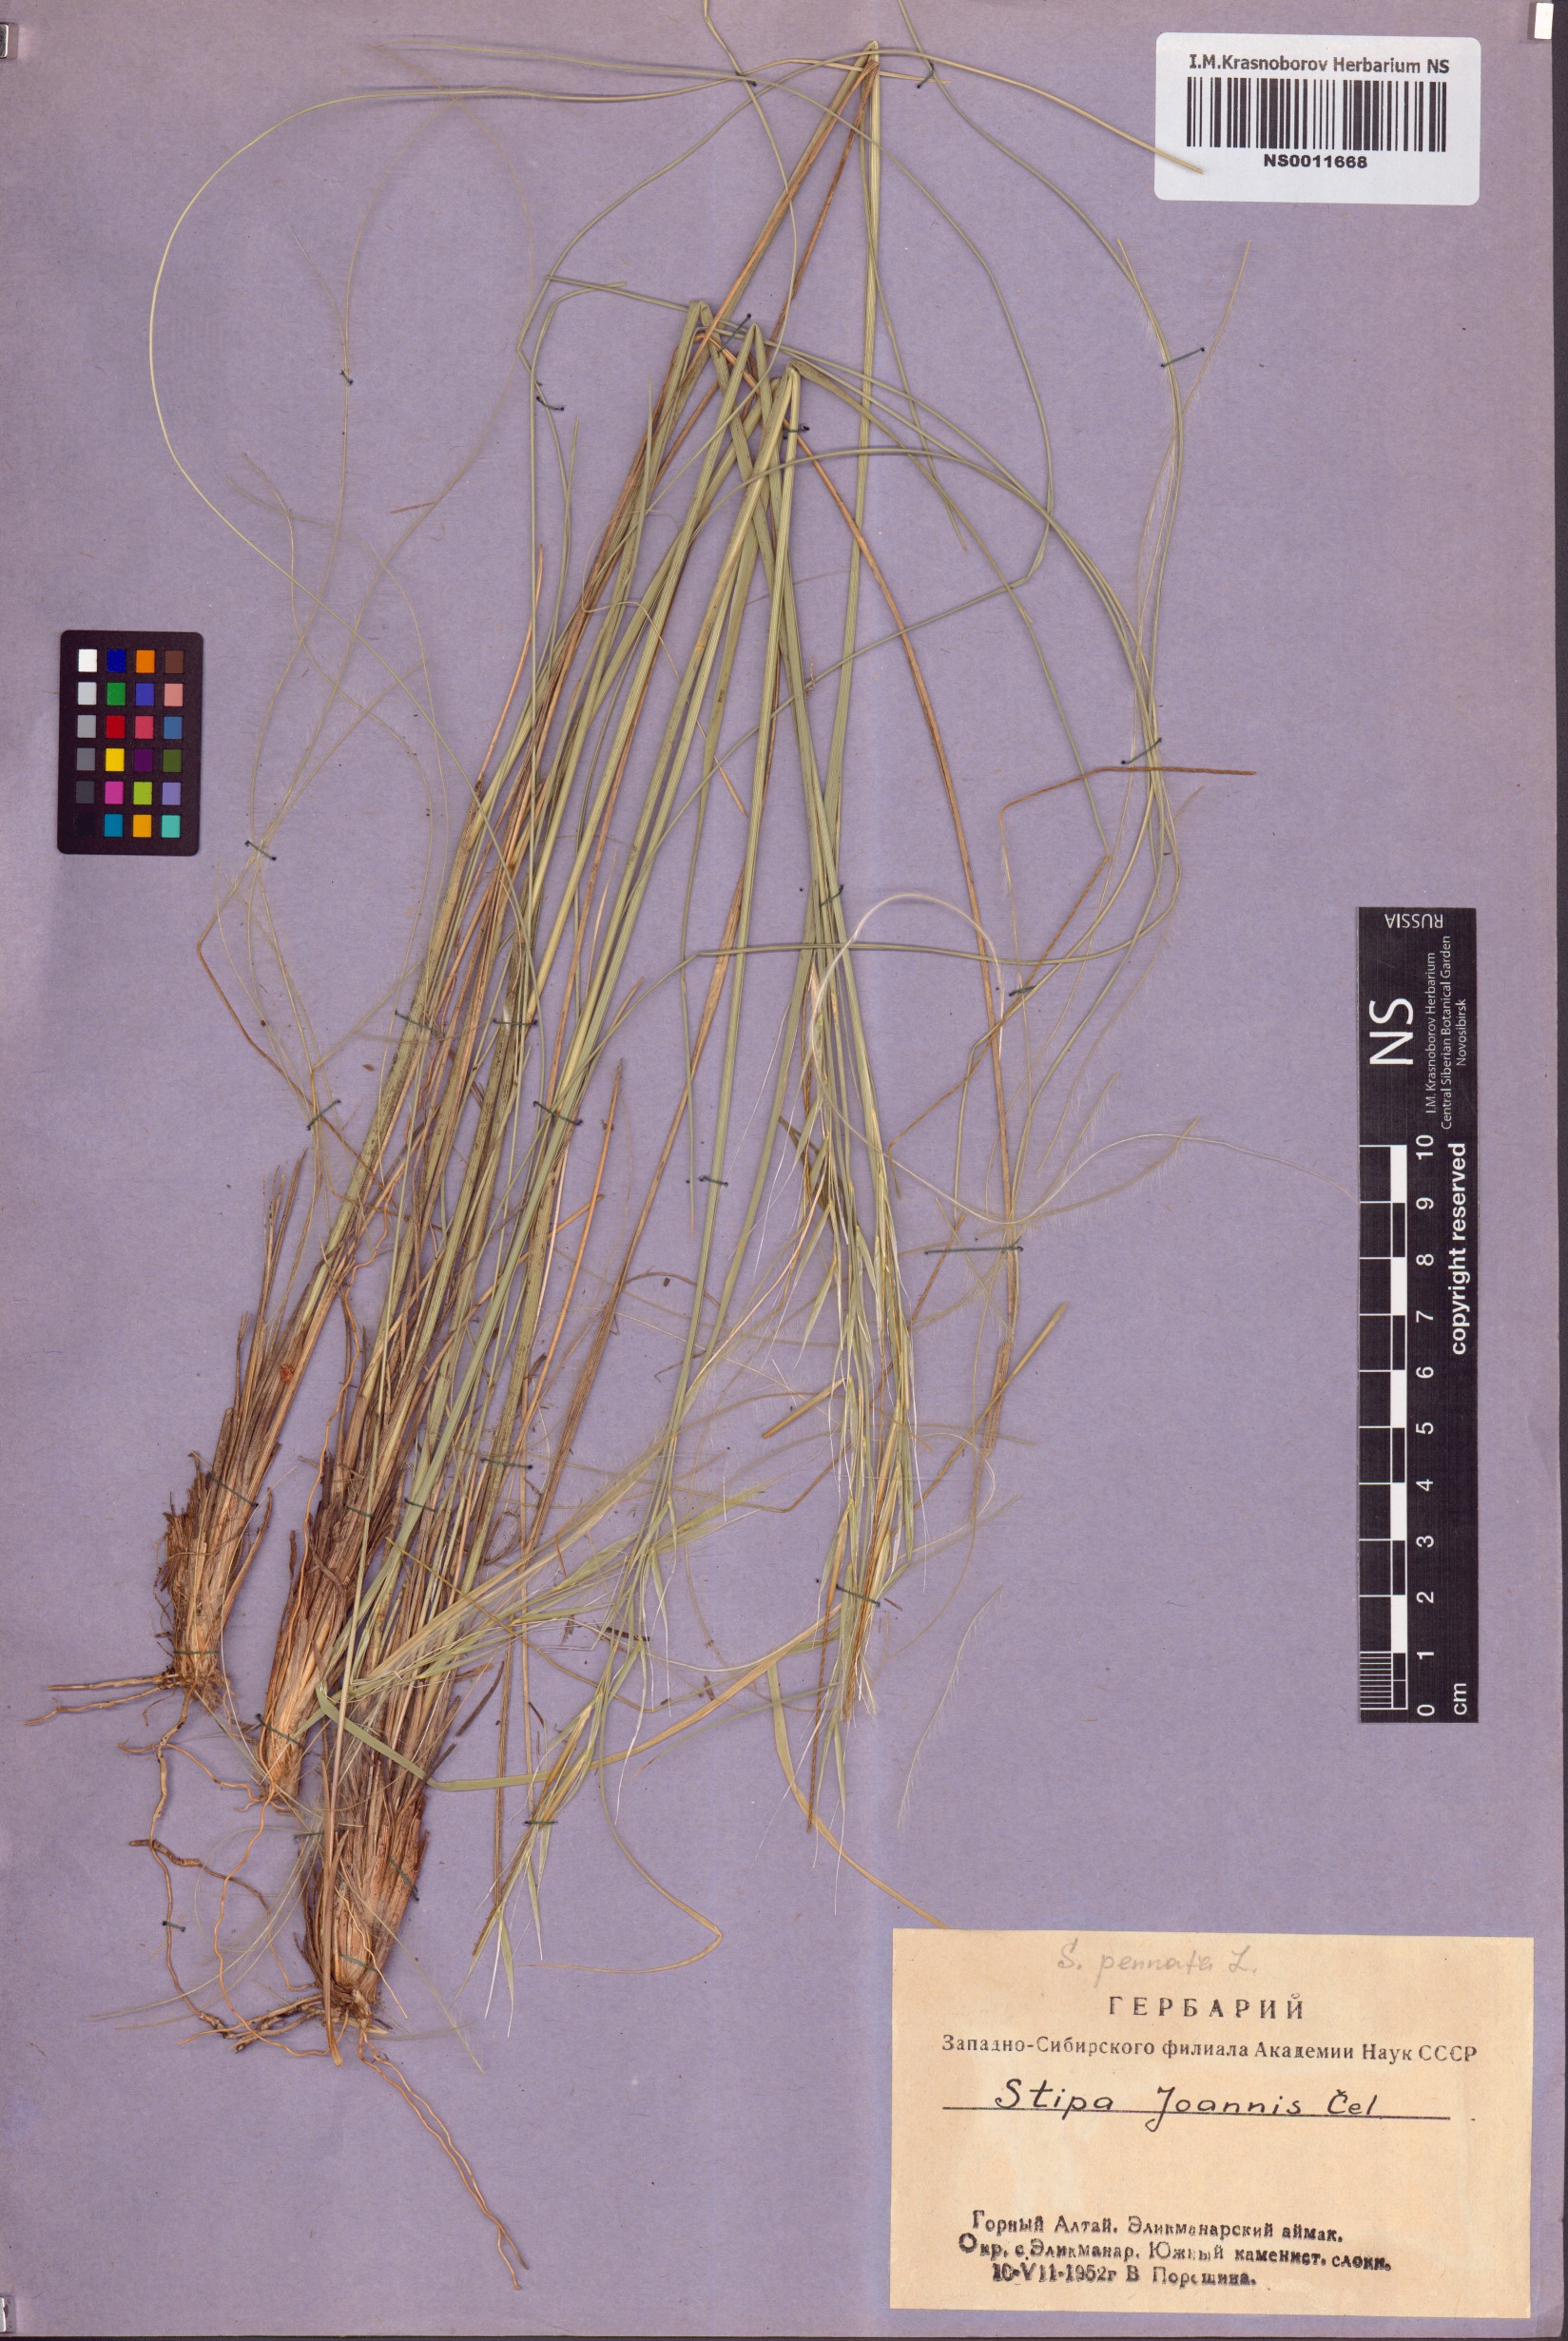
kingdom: Plantae
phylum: Tracheophyta
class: Liliopsida
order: Poales
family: Poaceae
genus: Stipa
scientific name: Stipa pennata
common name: European feather grass
